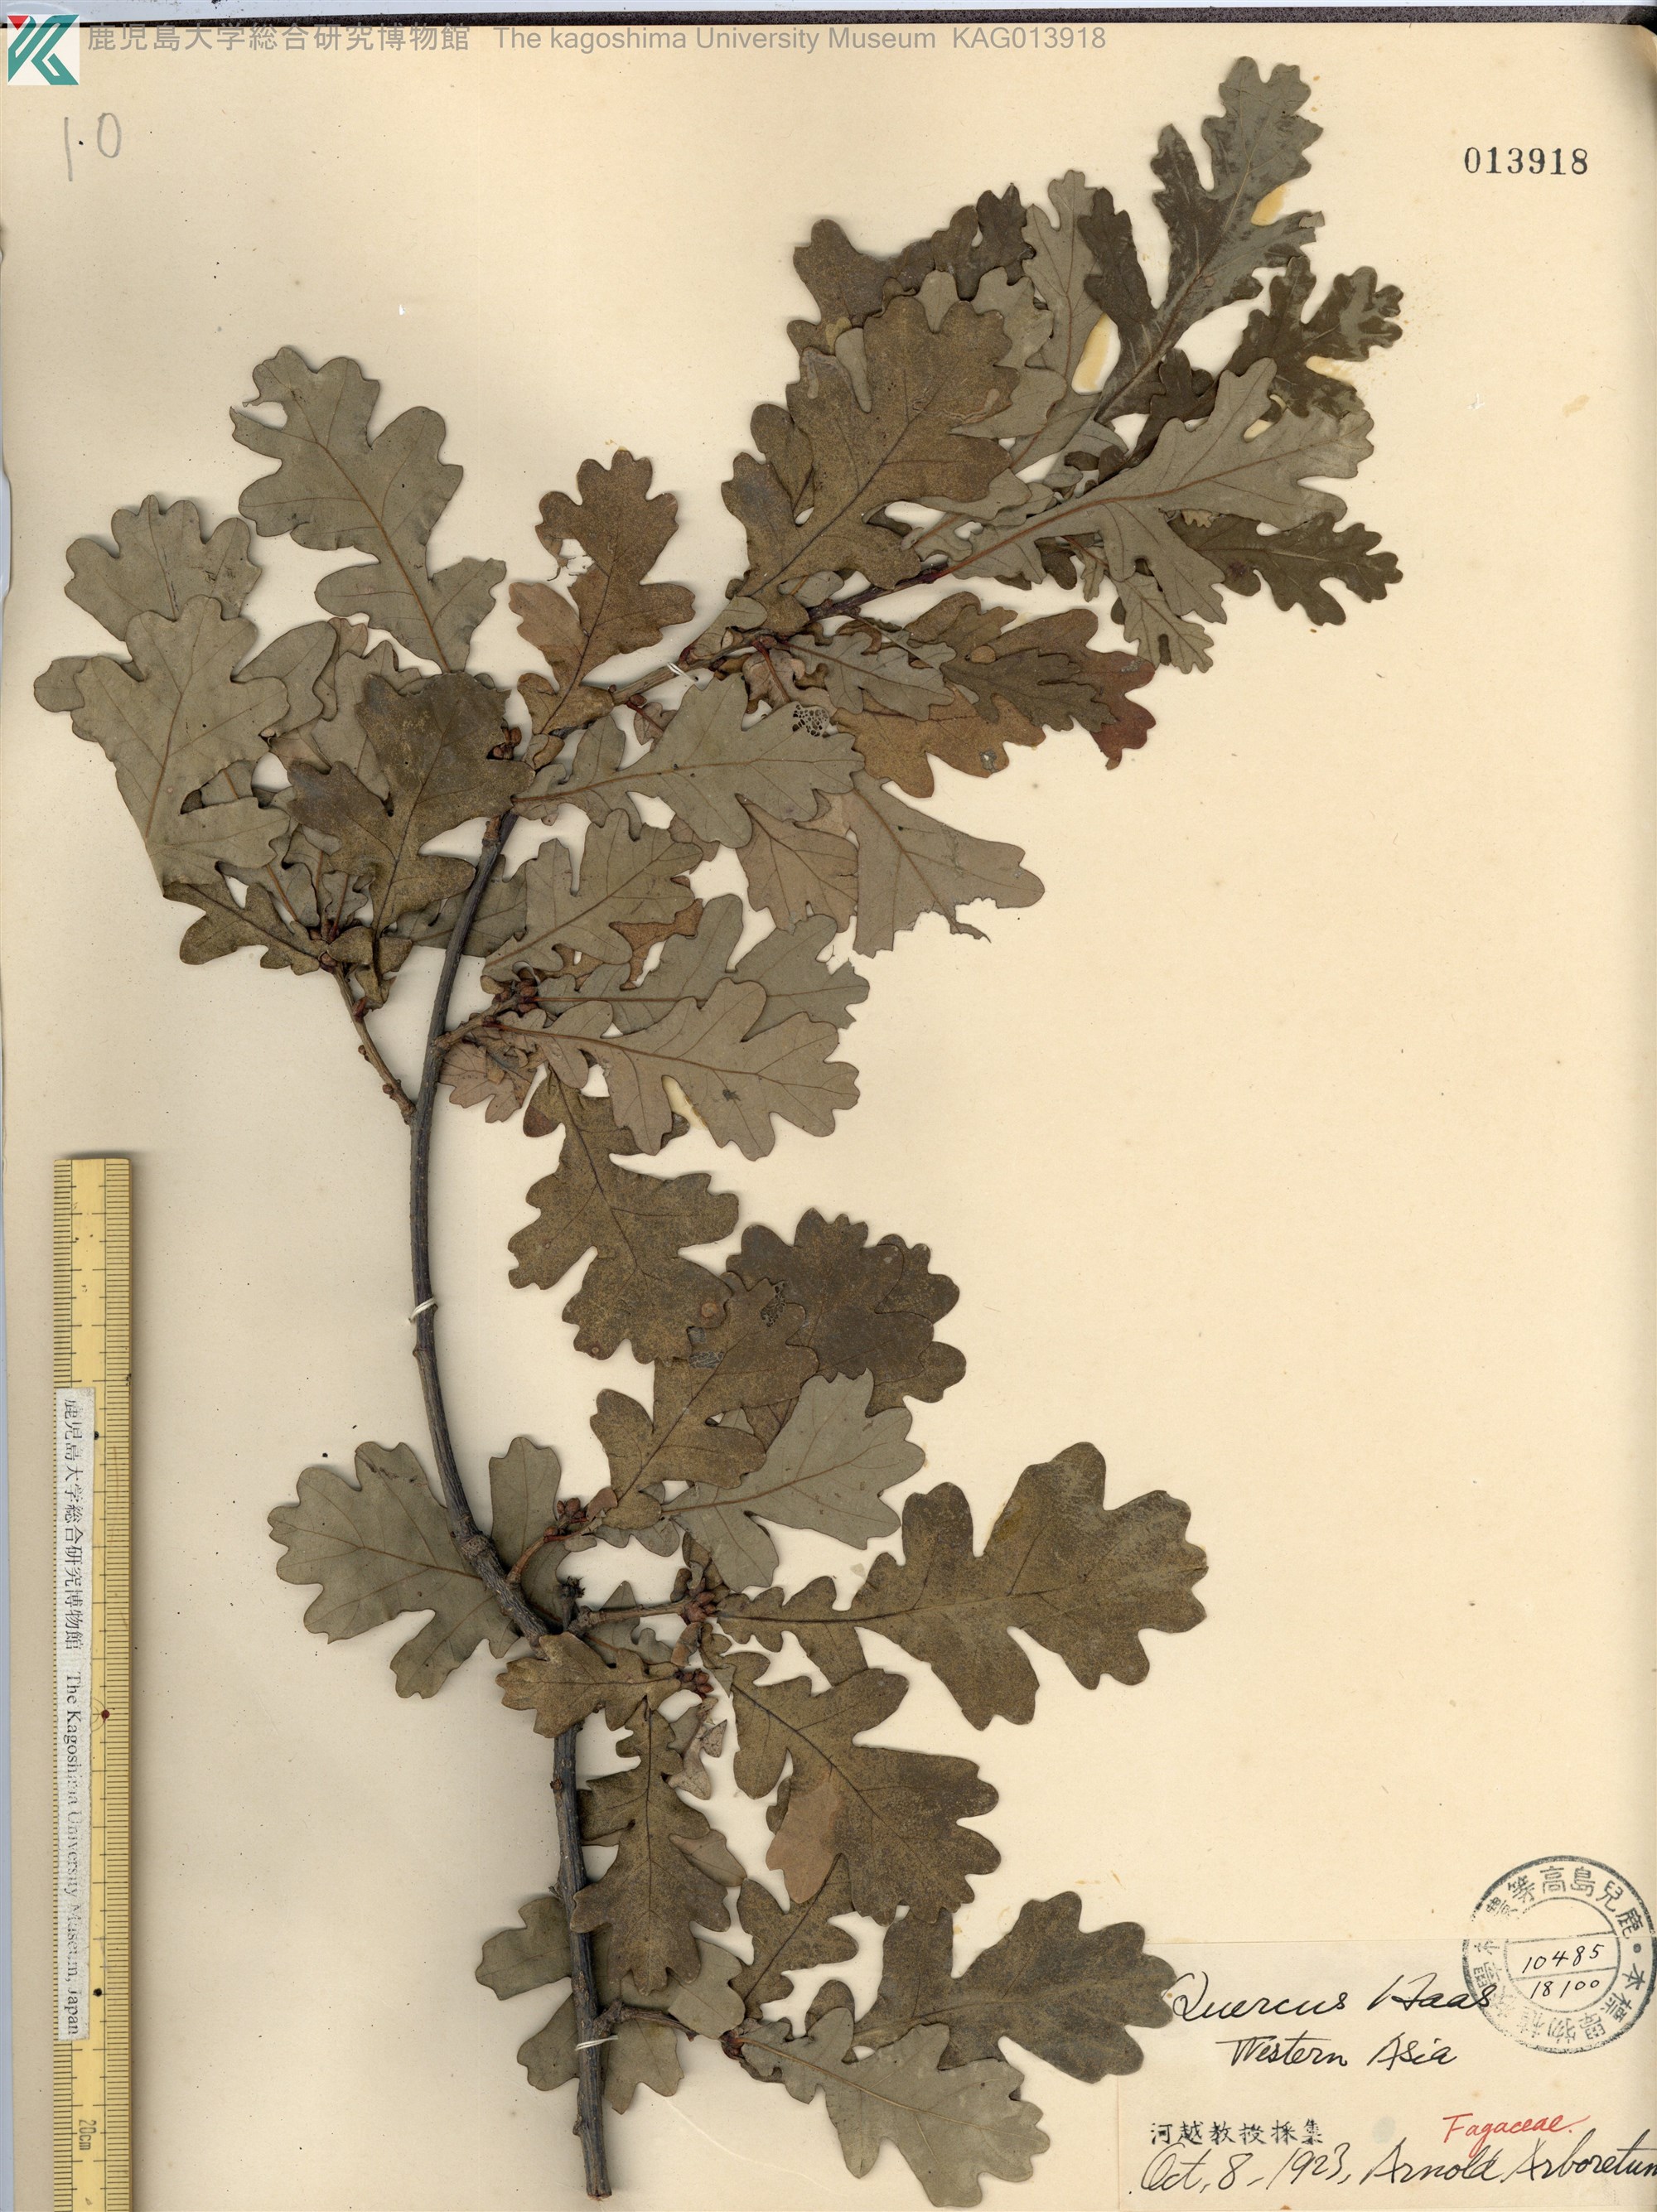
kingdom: Plantae
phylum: Tracheophyta
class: Magnoliopsida
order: Fagales
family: Fagaceae
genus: Quercus
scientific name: Quercus robur
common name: Pedunculate oak
